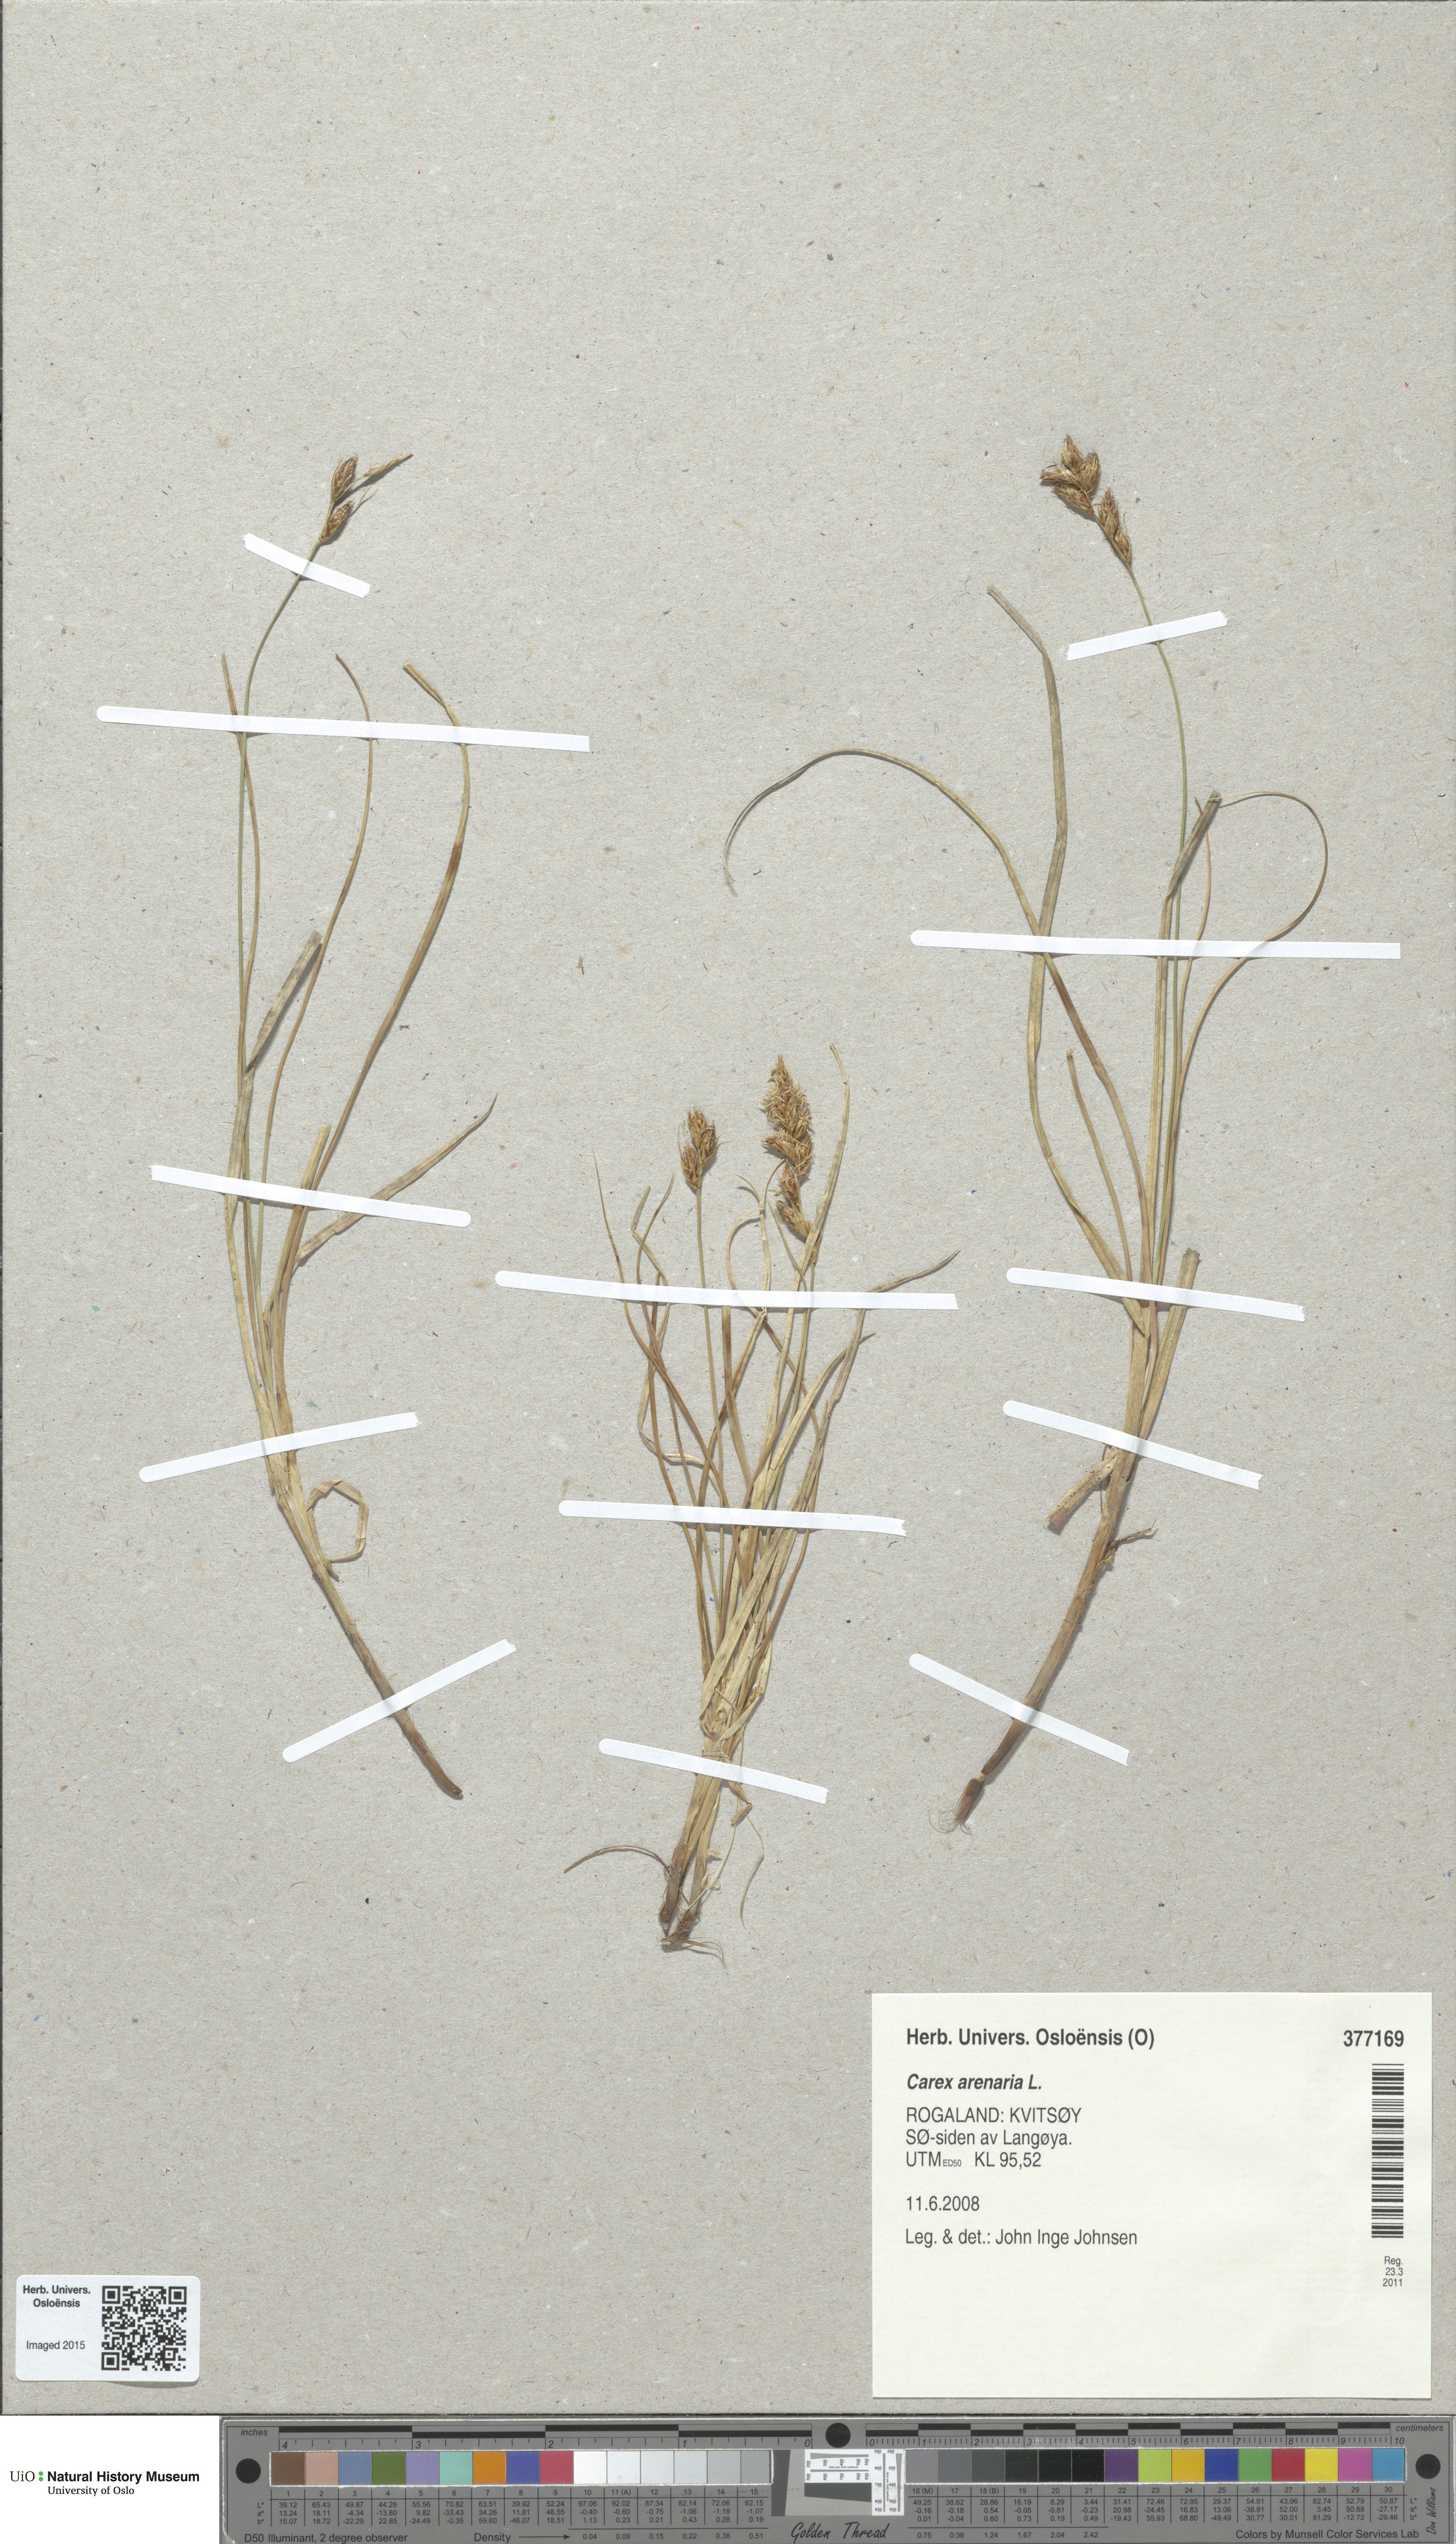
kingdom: Plantae
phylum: Tracheophyta
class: Liliopsida
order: Poales
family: Cyperaceae
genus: Carex
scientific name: Carex arenaria
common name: Sand sedge
